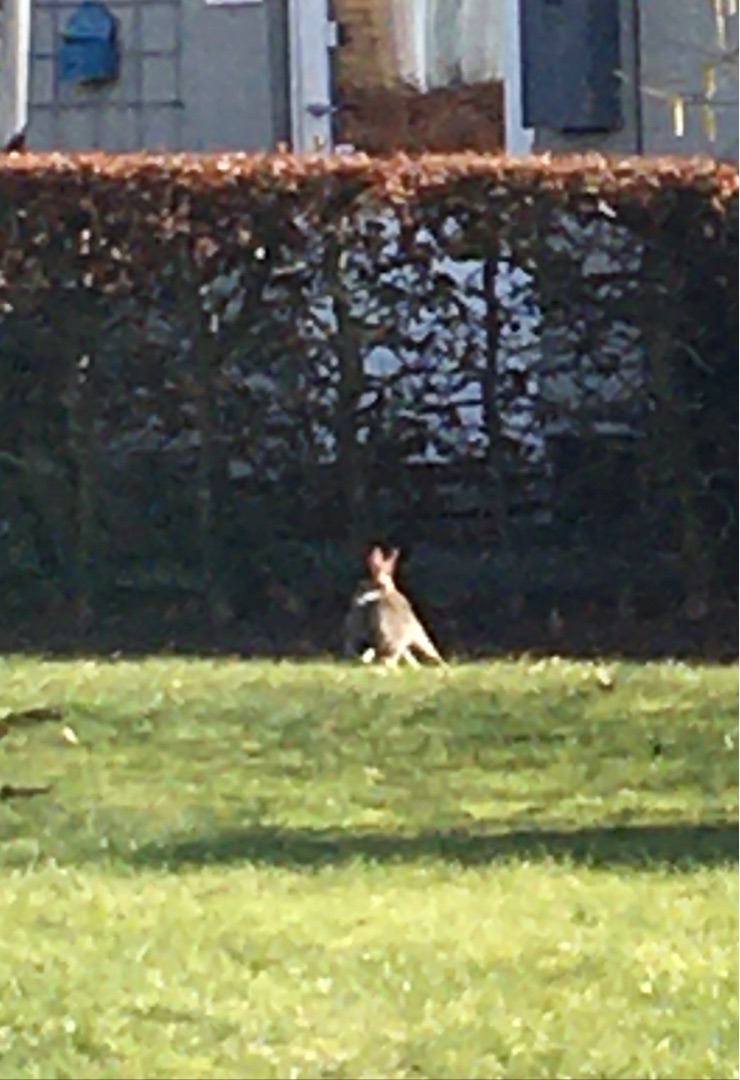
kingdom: Animalia
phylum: Chordata
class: Mammalia
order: Lagomorpha
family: Leporidae
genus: Lepus
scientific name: Lepus europaeus
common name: Hare
